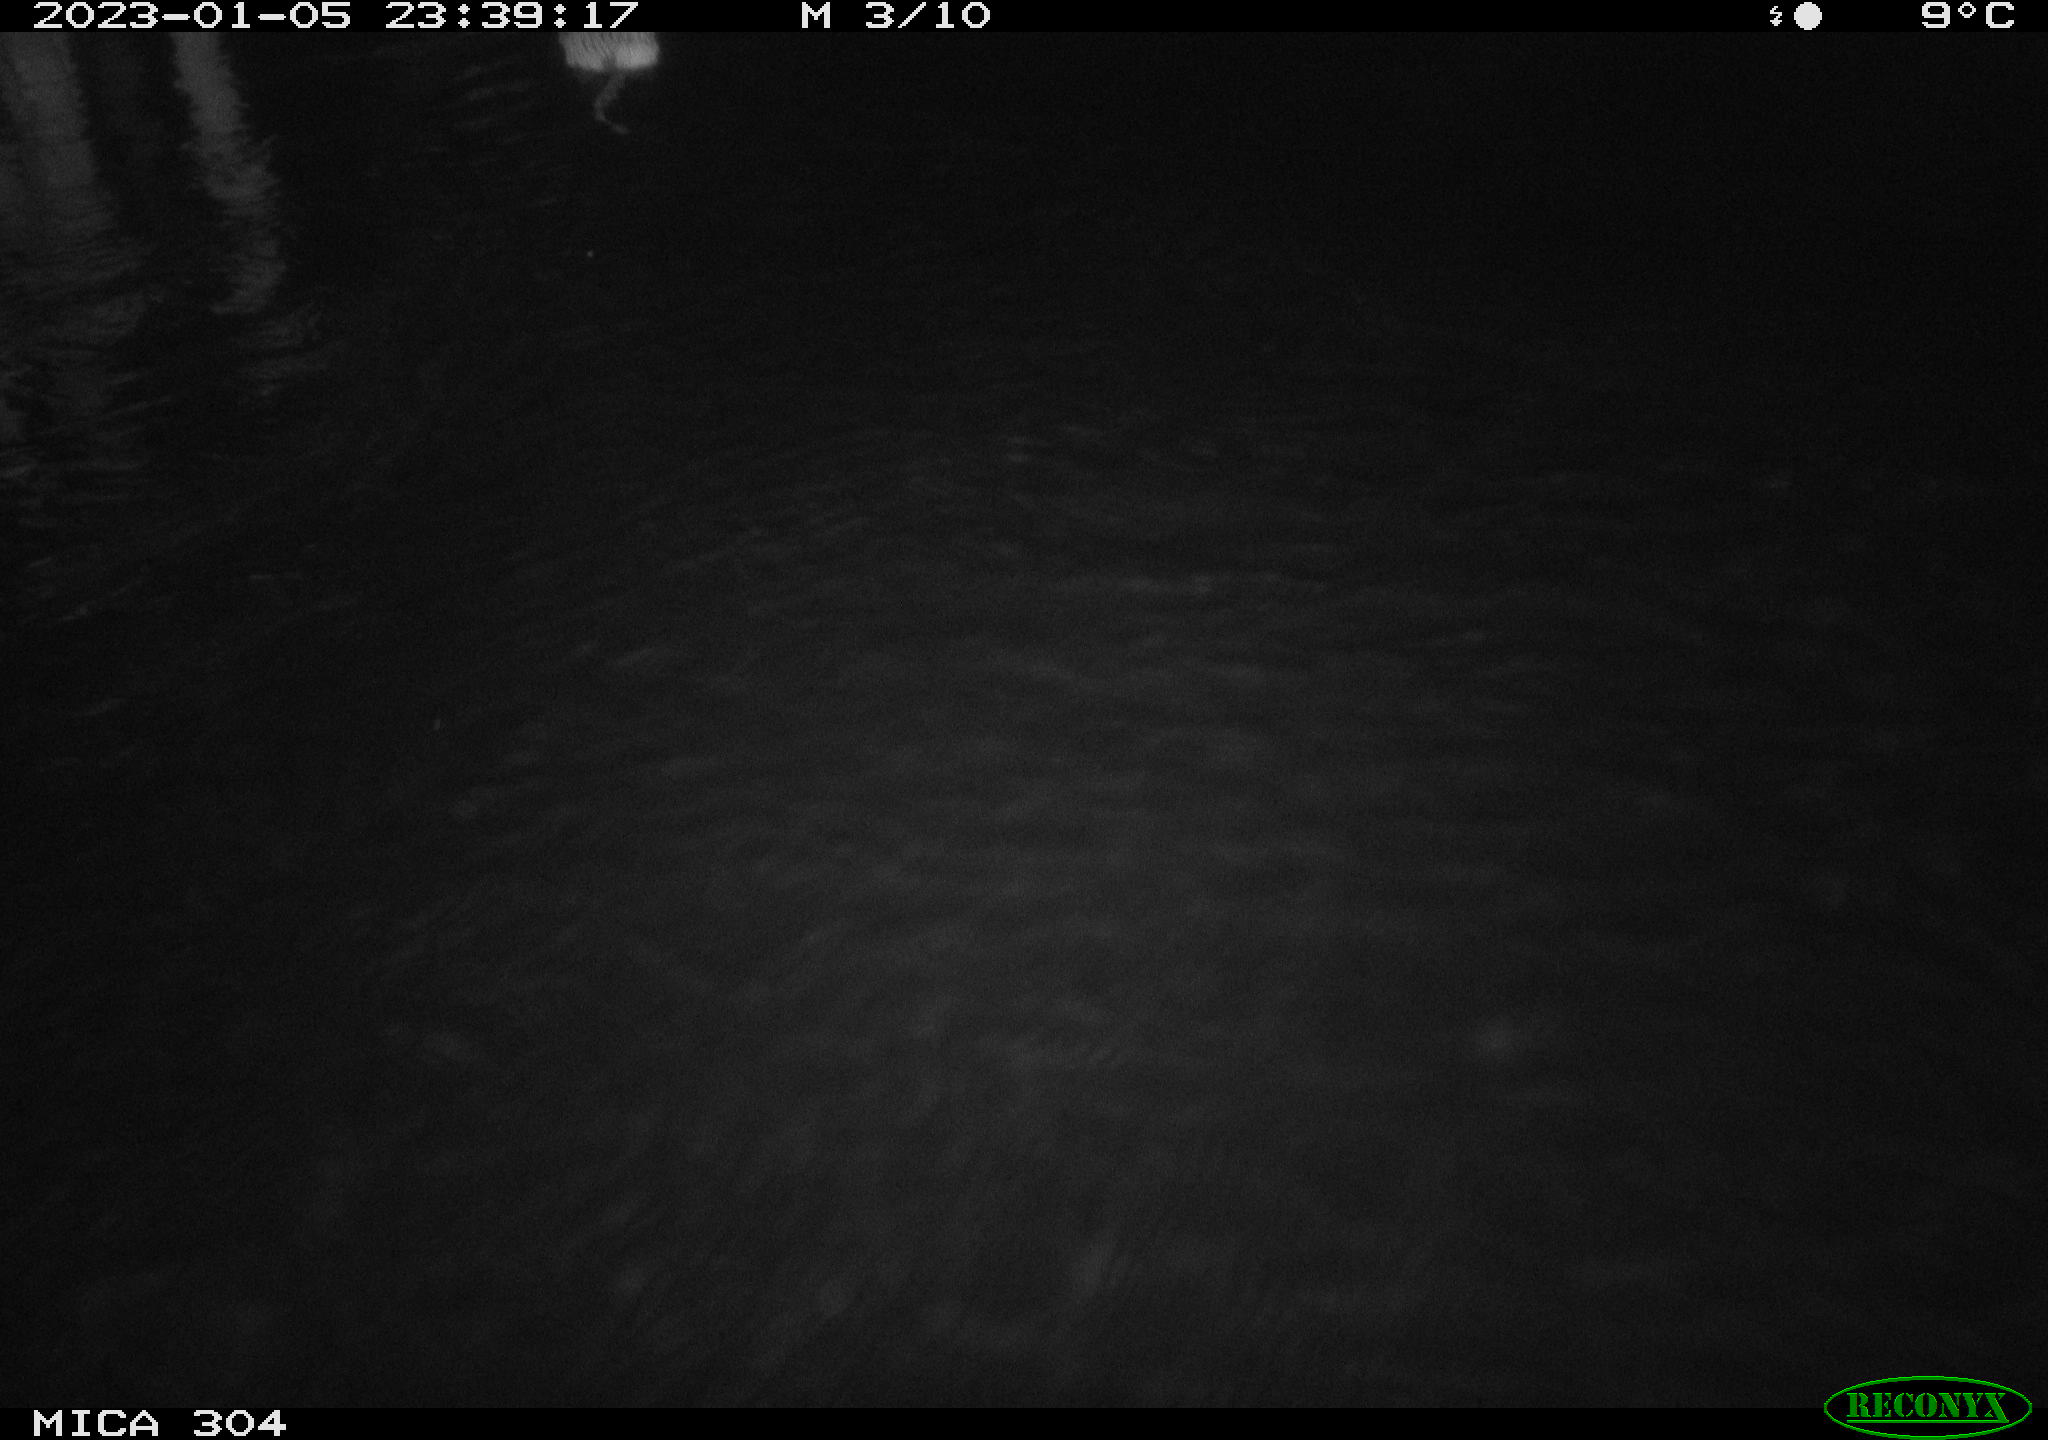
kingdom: Animalia
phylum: Chordata
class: Mammalia
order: Rodentia
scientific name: Rodentia
